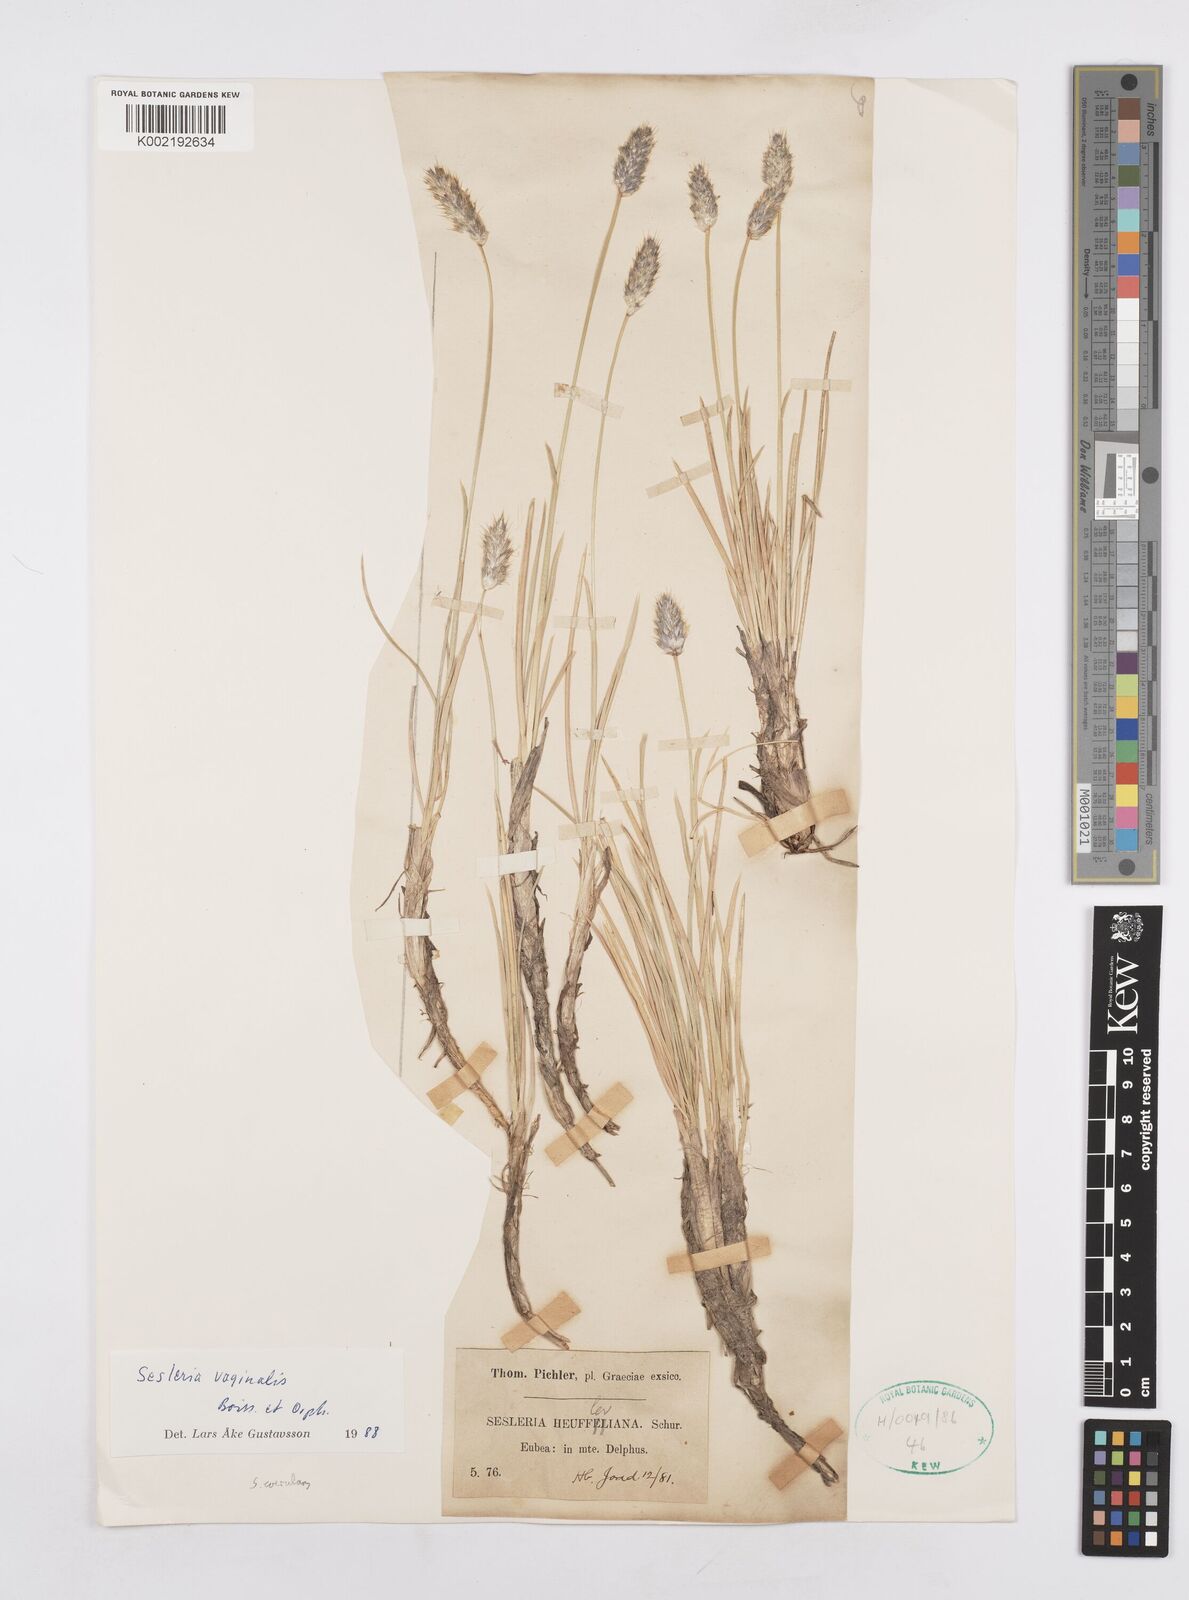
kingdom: Plantae
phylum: Tracheophyta
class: Liliopsida
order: Poales
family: Poaceae
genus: Sesleria
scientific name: Sesleria vaginalis
